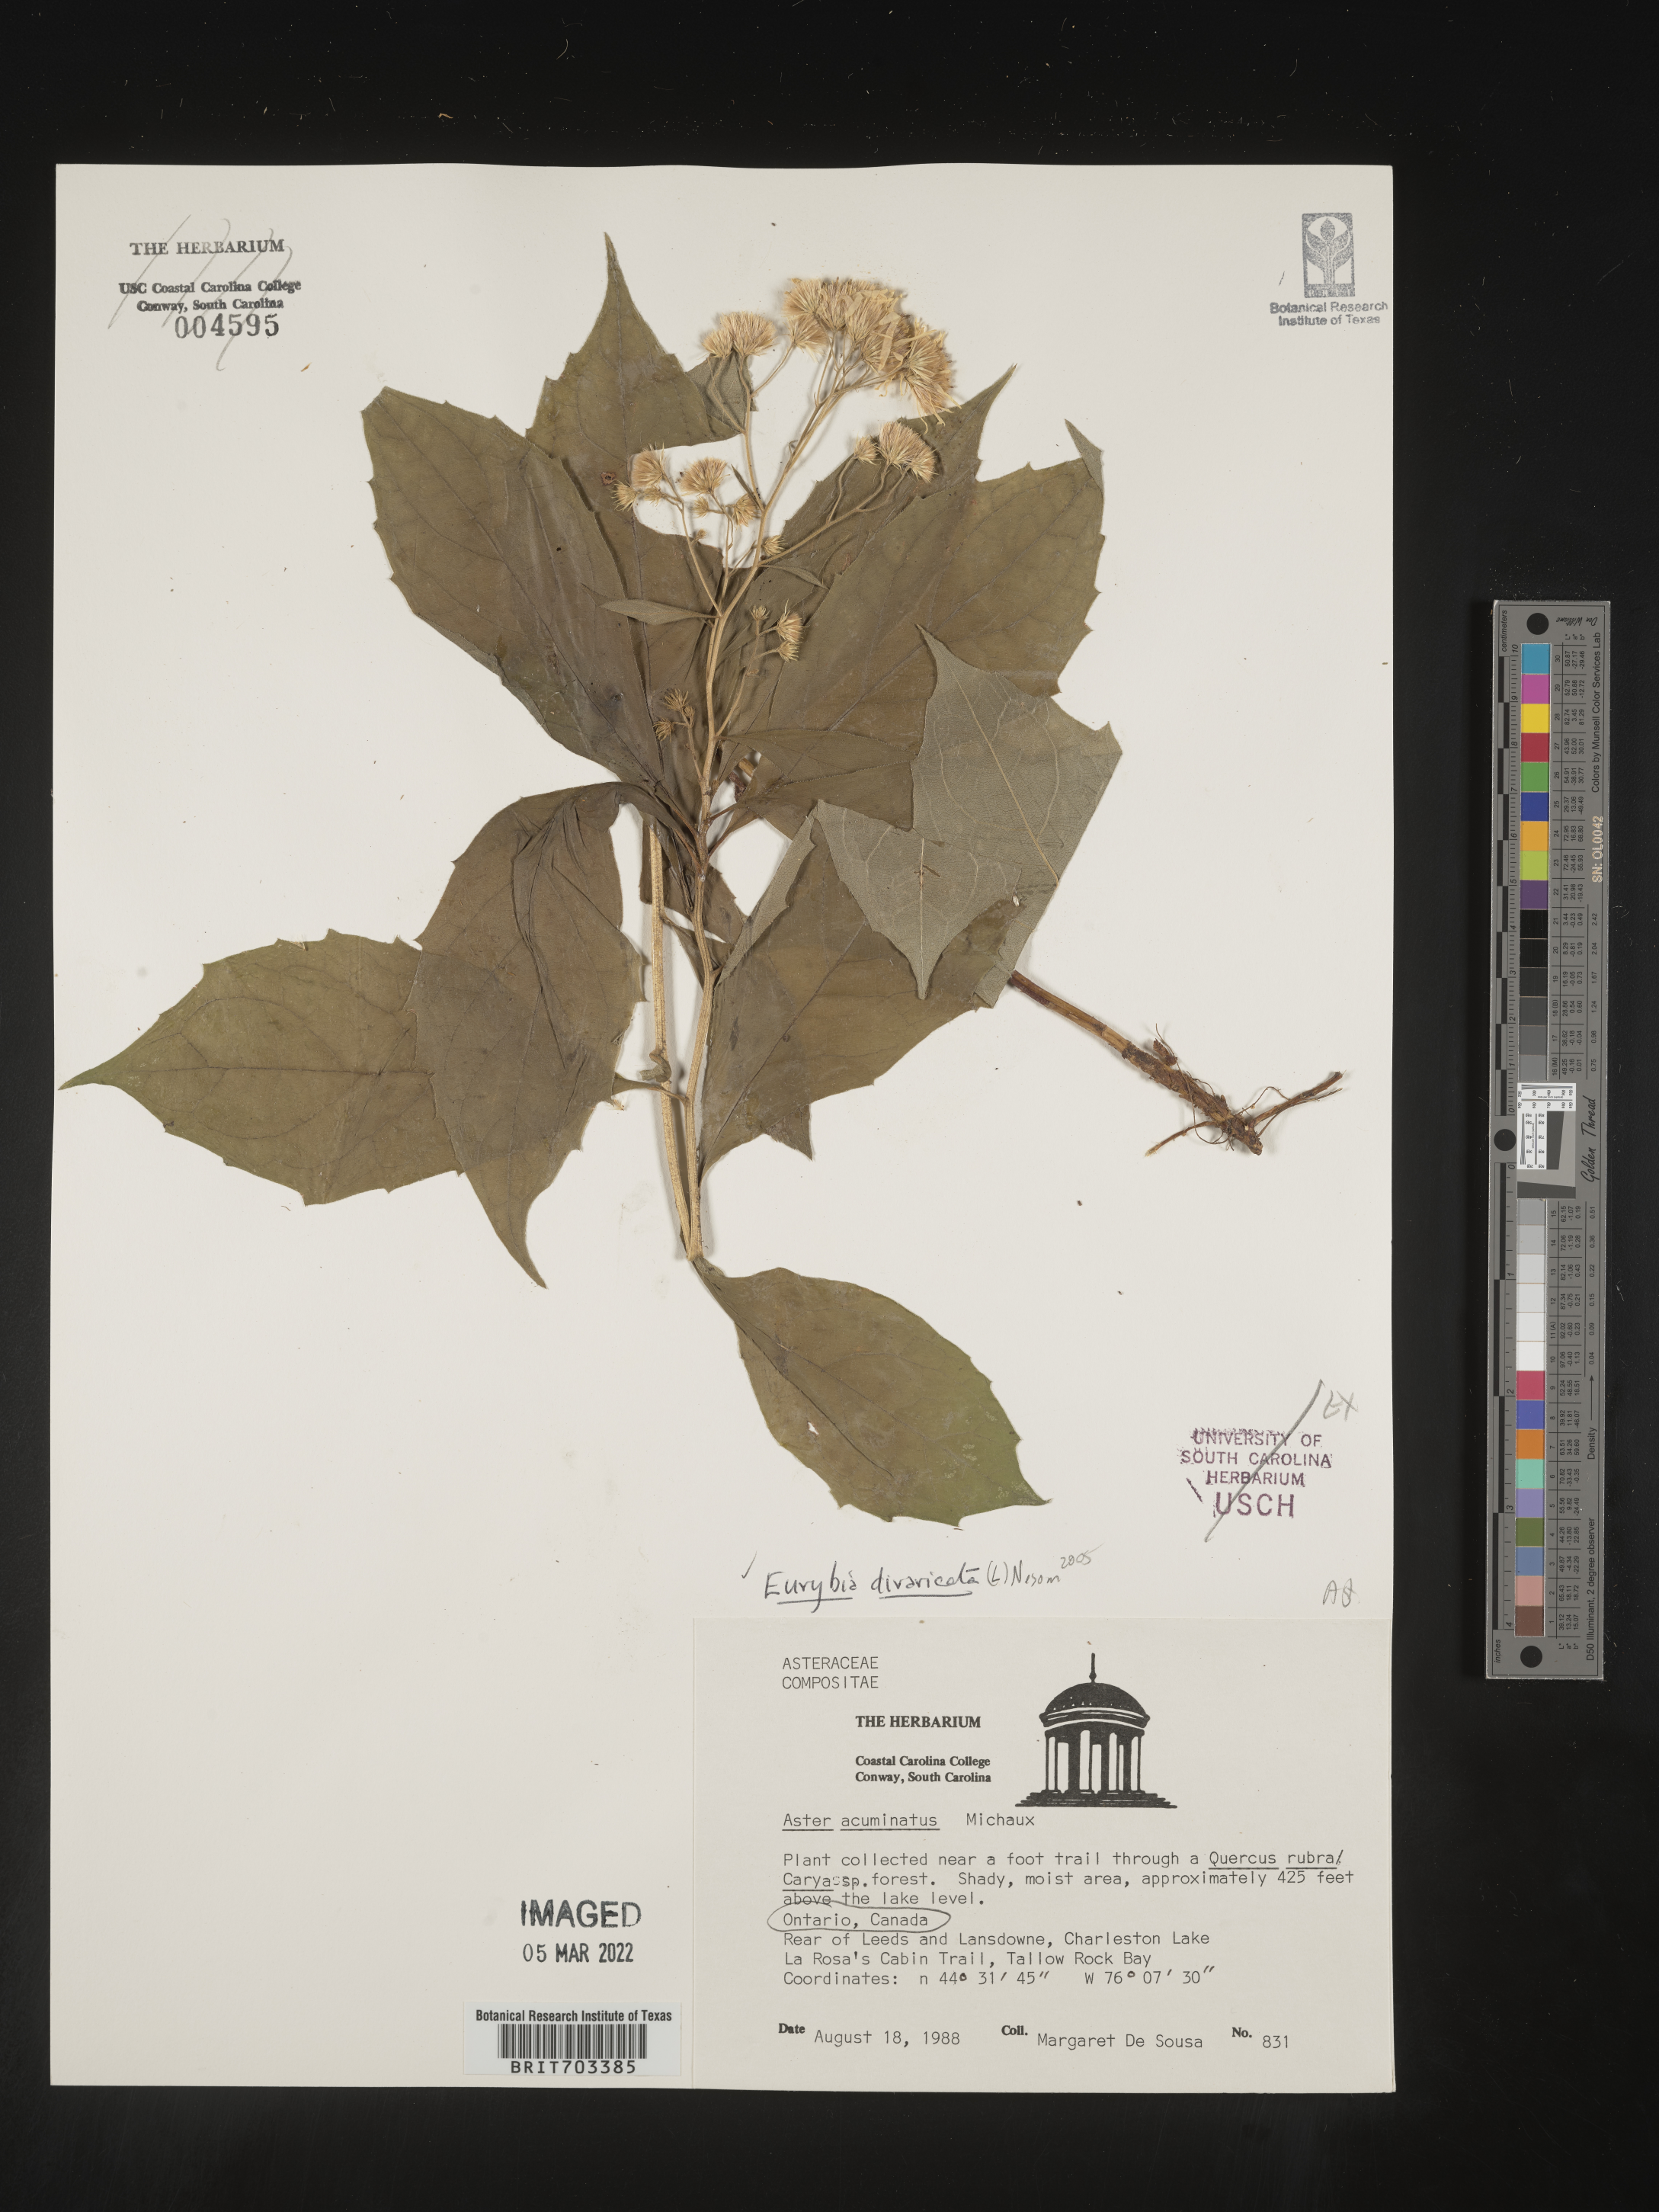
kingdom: Plantae
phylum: Tracheophyta
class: Magnoliopsida
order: Asterales
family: Asteraceae
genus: Eurybia
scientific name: Eurybia divaricata
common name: White wood aster
